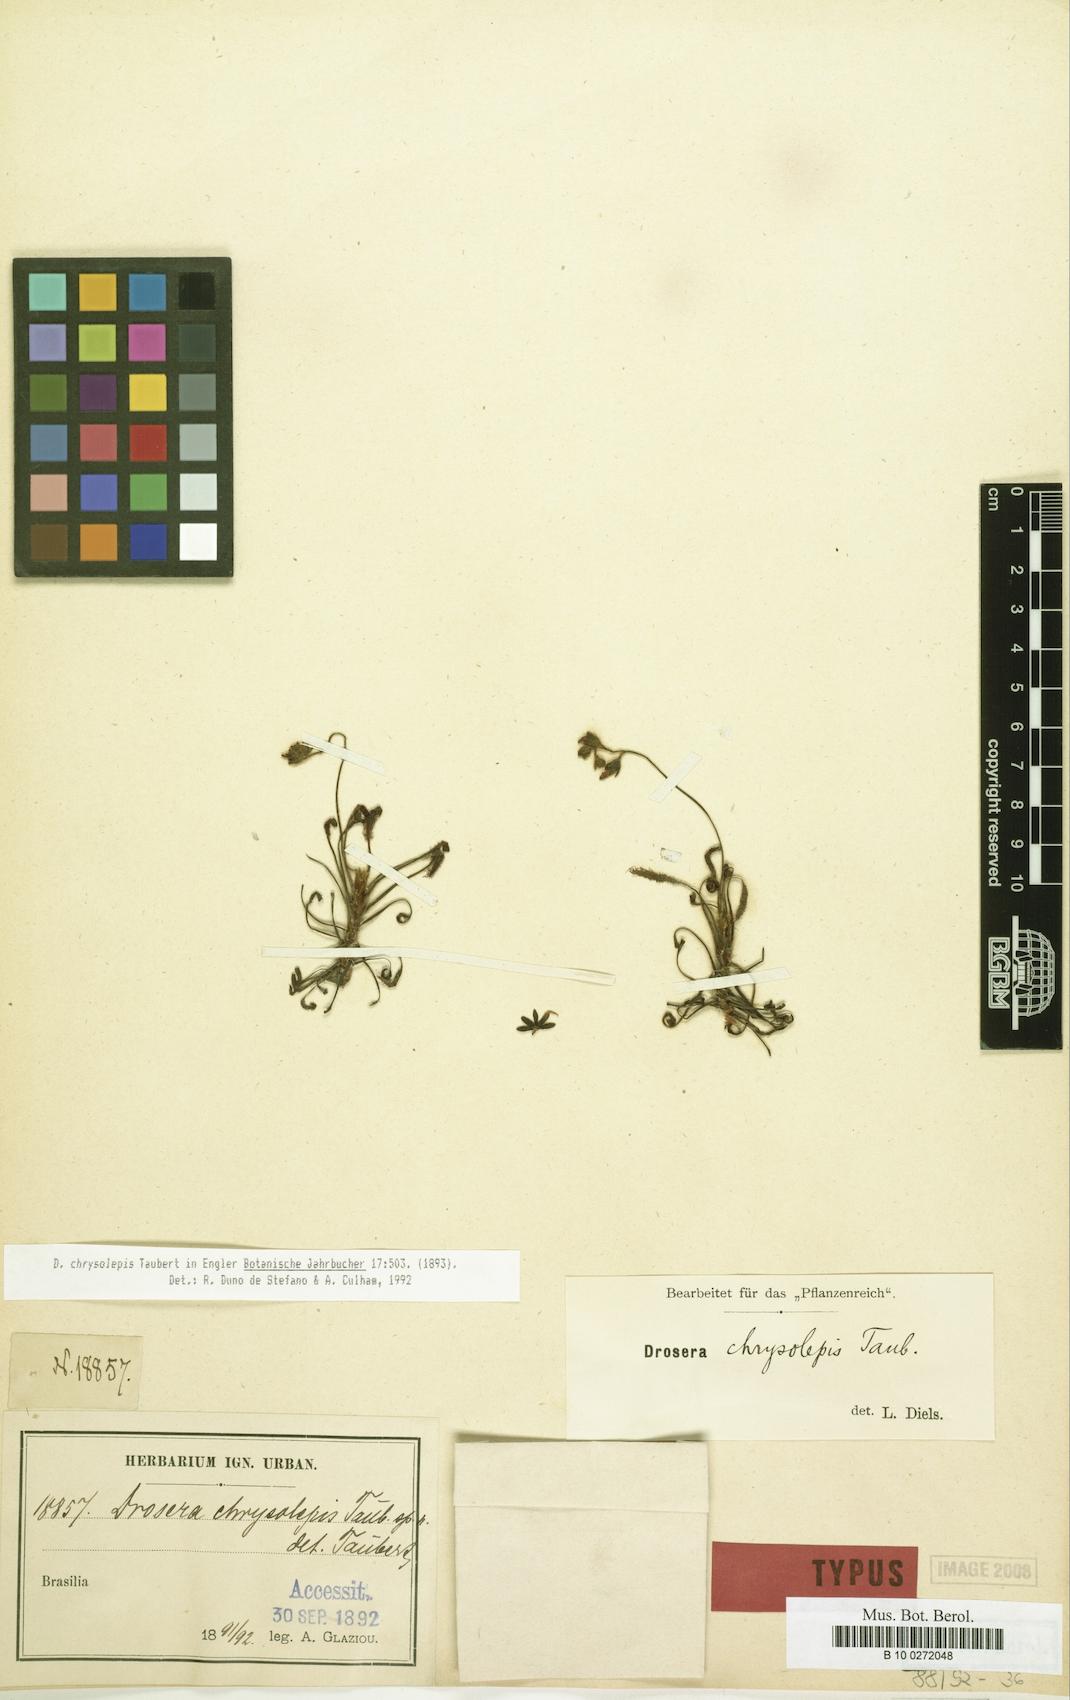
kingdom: Plantae
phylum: Tracheophyta
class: Magnoliopsida
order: Caryophyllales
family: Droseraceae
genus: Drosera
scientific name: Drosera chrysolepis
